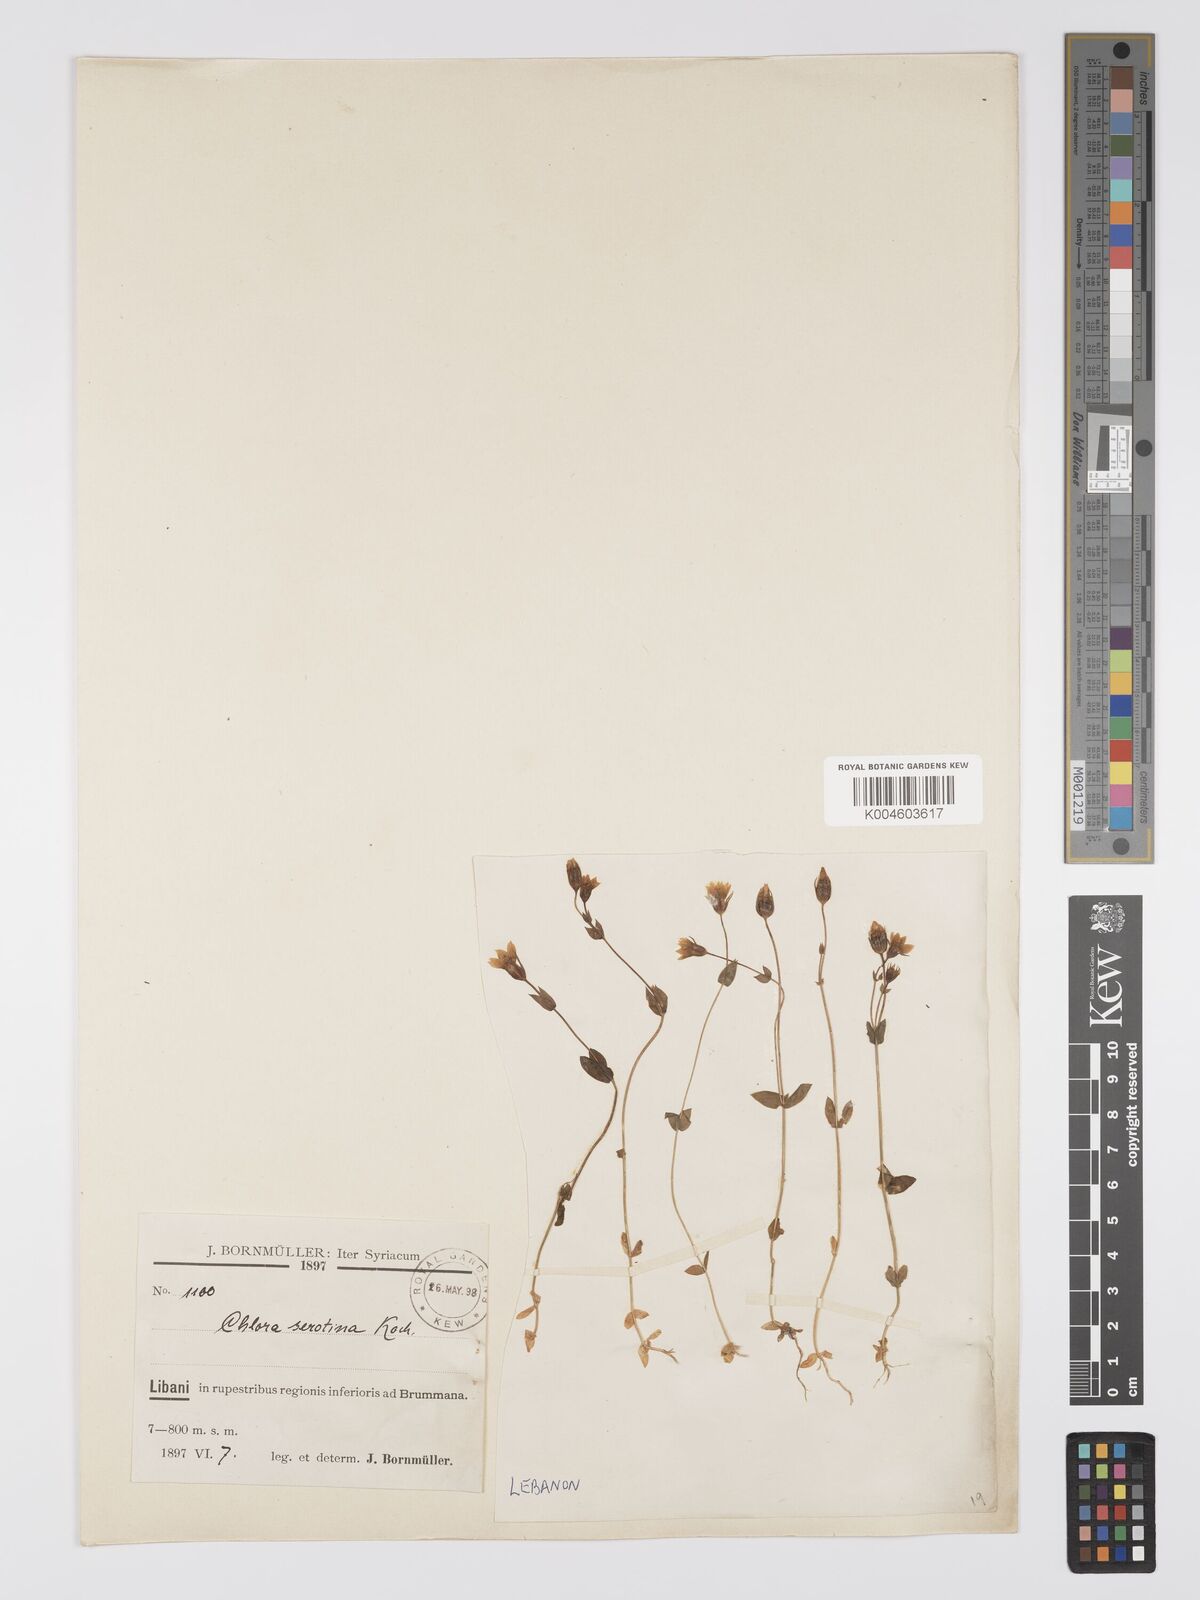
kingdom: Plantae
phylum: Tracheophyta
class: Magnoliopsida
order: Gentianales
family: Gentianaceae
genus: Blackstonia
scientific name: Blackstonia acuminata
